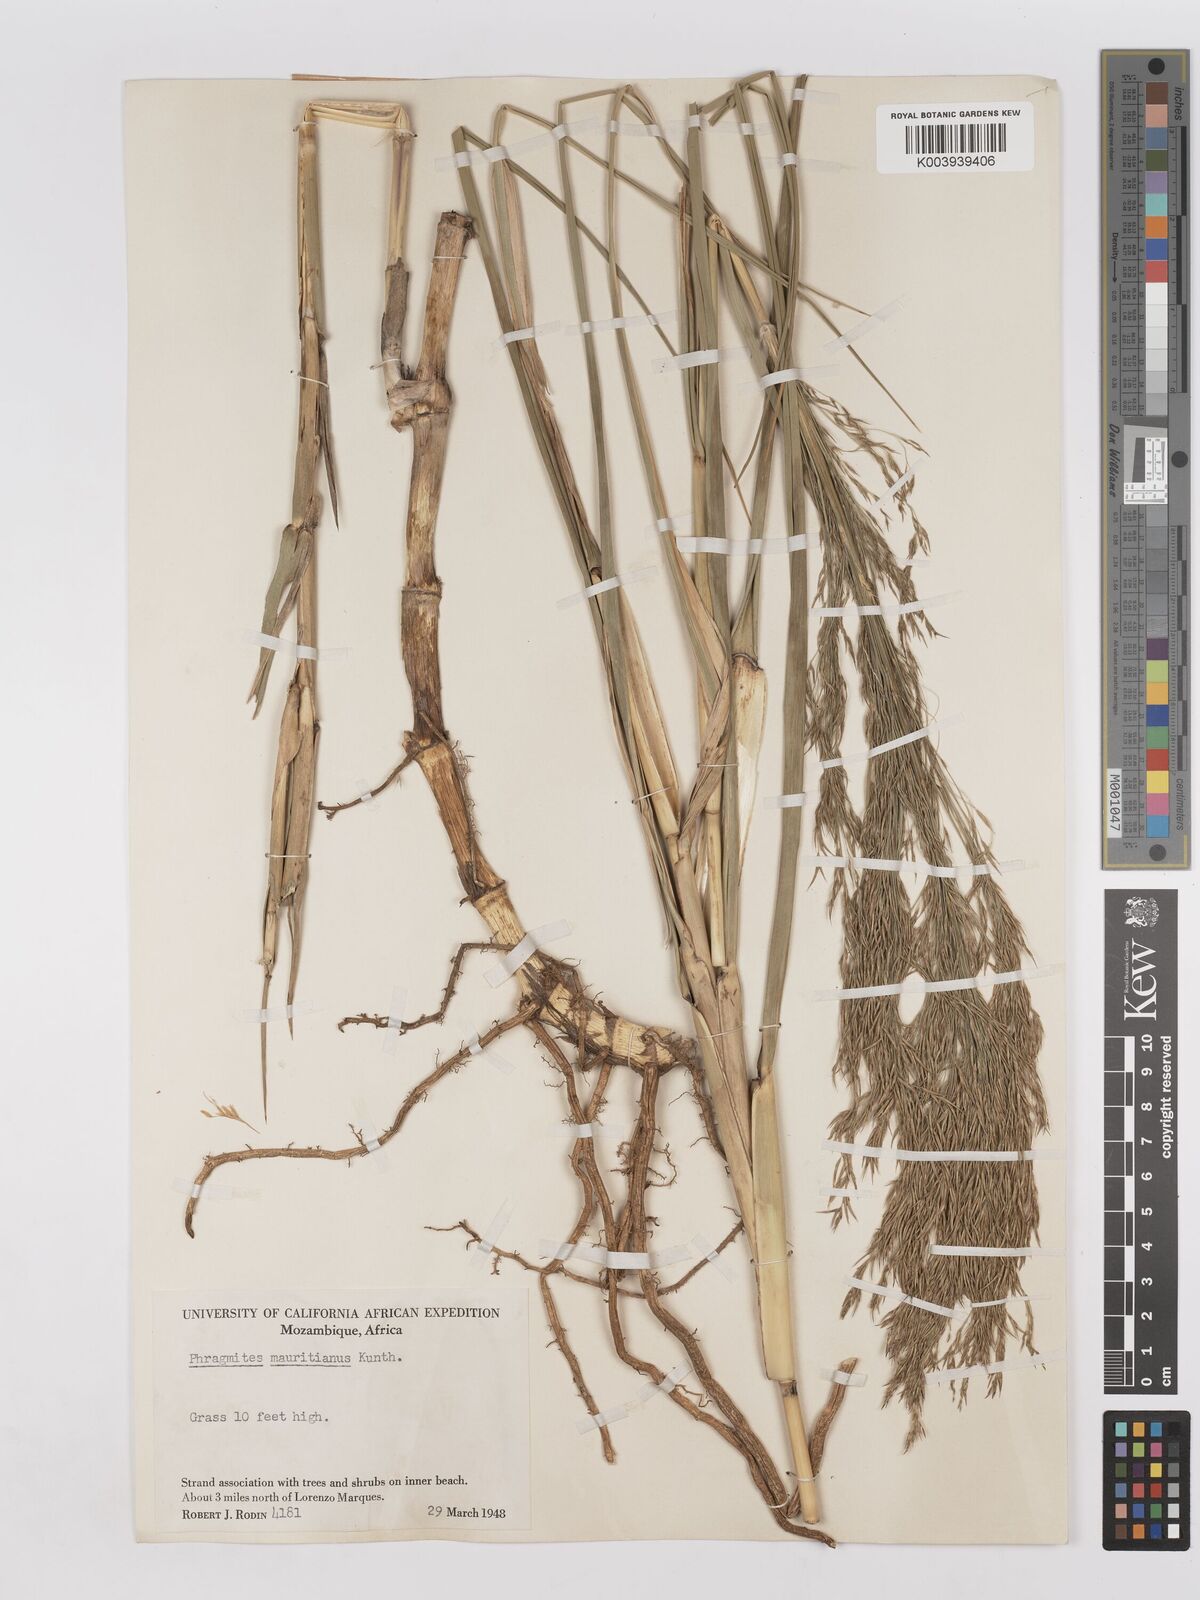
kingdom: Plantae
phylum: Tracheophyta
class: Liliopsida
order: Poales
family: Poaceae
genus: Phragmites
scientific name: Phragmites mauritianus
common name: Reed grass
